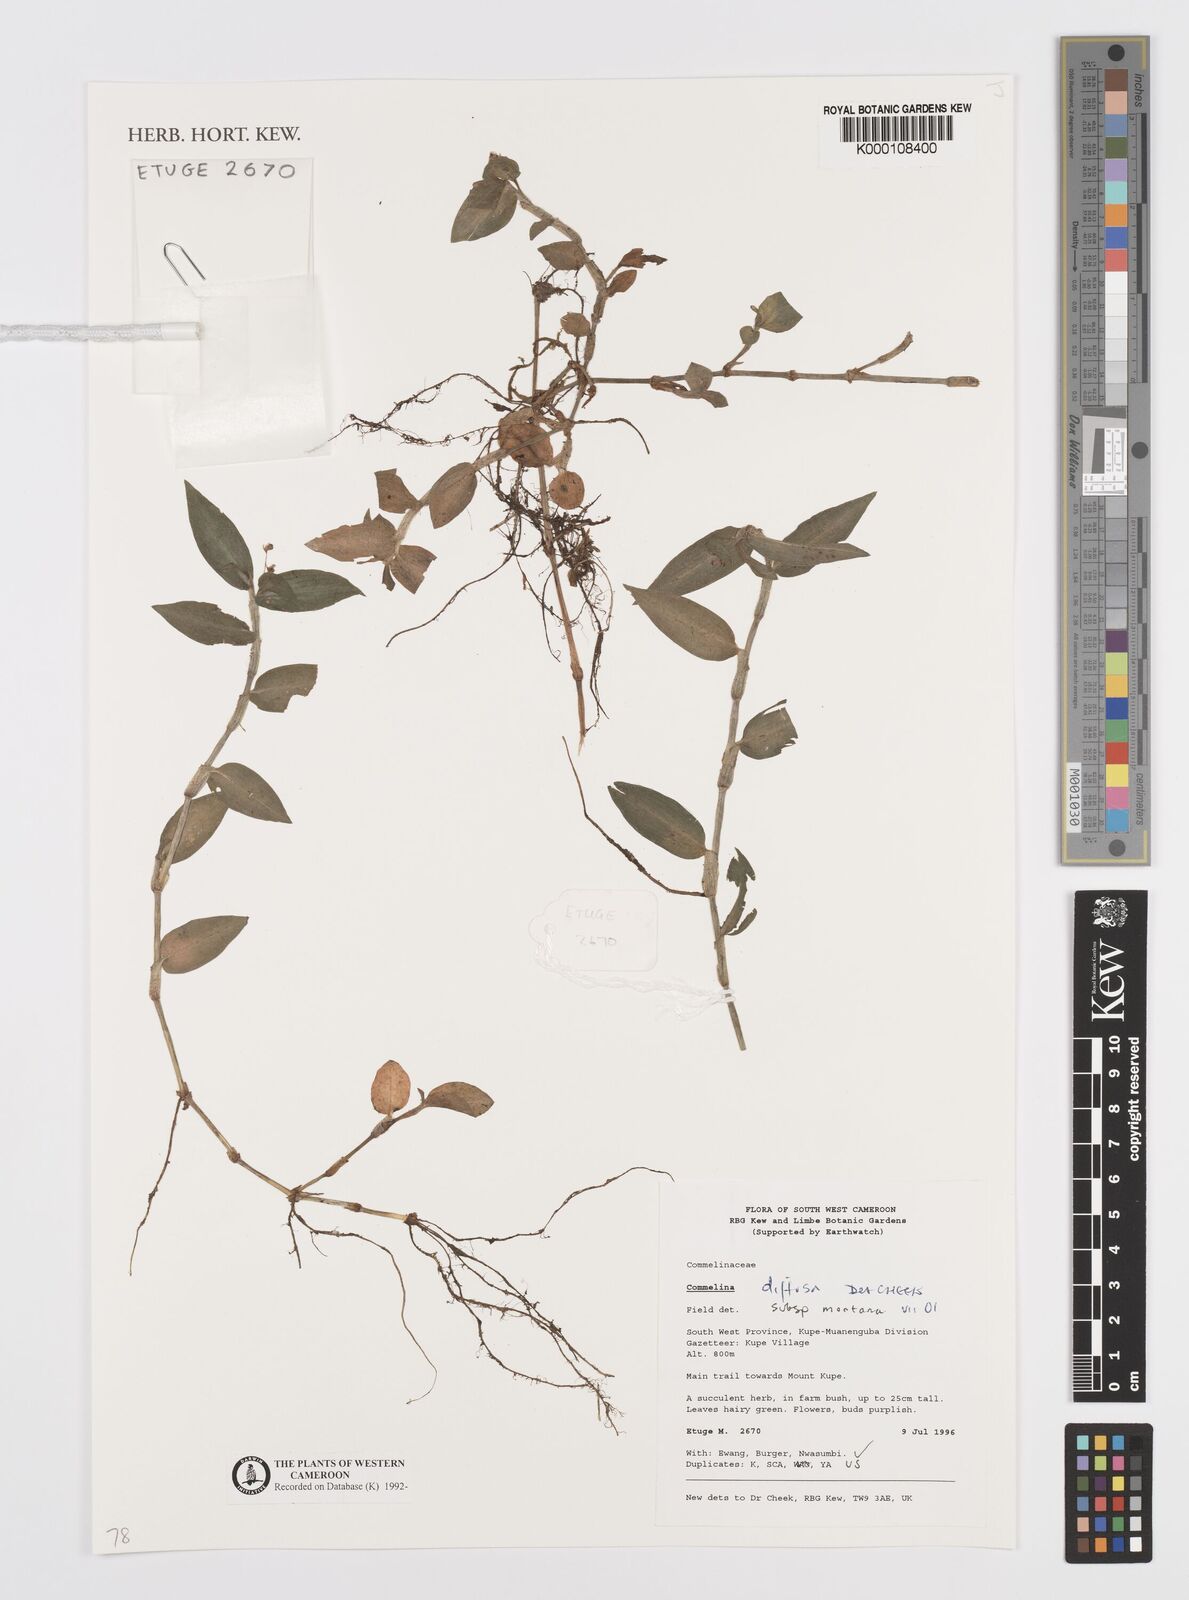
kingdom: Plantae
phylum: Tracheophyta
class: Liliopsida
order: Commelinales
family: Commelinaceae
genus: Commelina
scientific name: Commelina diffusa
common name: Climbing dayflower
